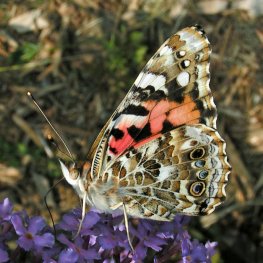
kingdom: Animalia
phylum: Arthropoda
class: Insecta
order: Lepidoptera
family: Nymphalidae
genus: Vanessa
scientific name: Vanessa cardui
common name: Painted Lady
